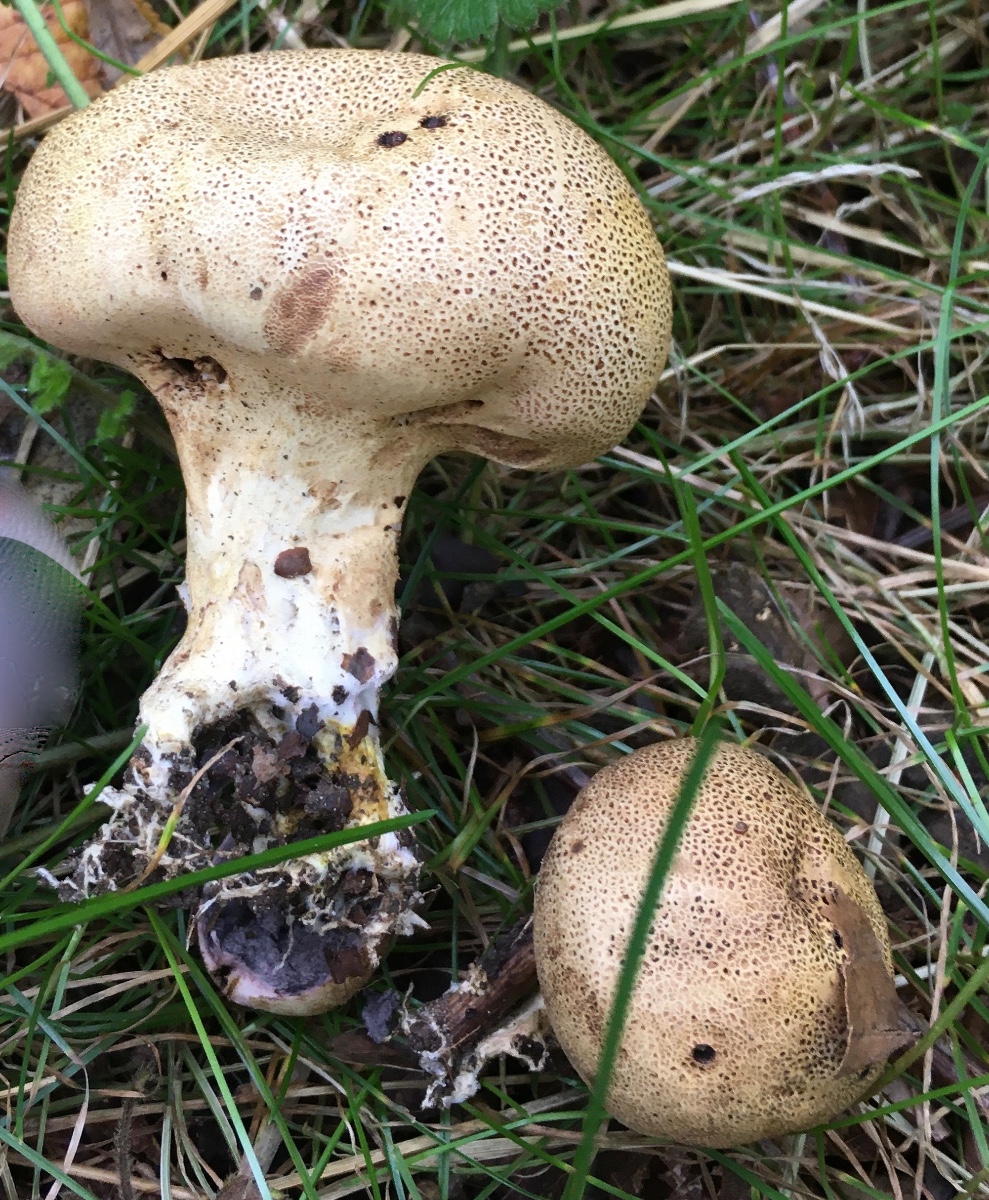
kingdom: Fungi
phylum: Basidiomycota
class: Agaricomycetes
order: Boletales
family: Sclerodermataceae
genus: Scleroderma
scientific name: Scleroderma verrucosum
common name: stilket bruskbold
